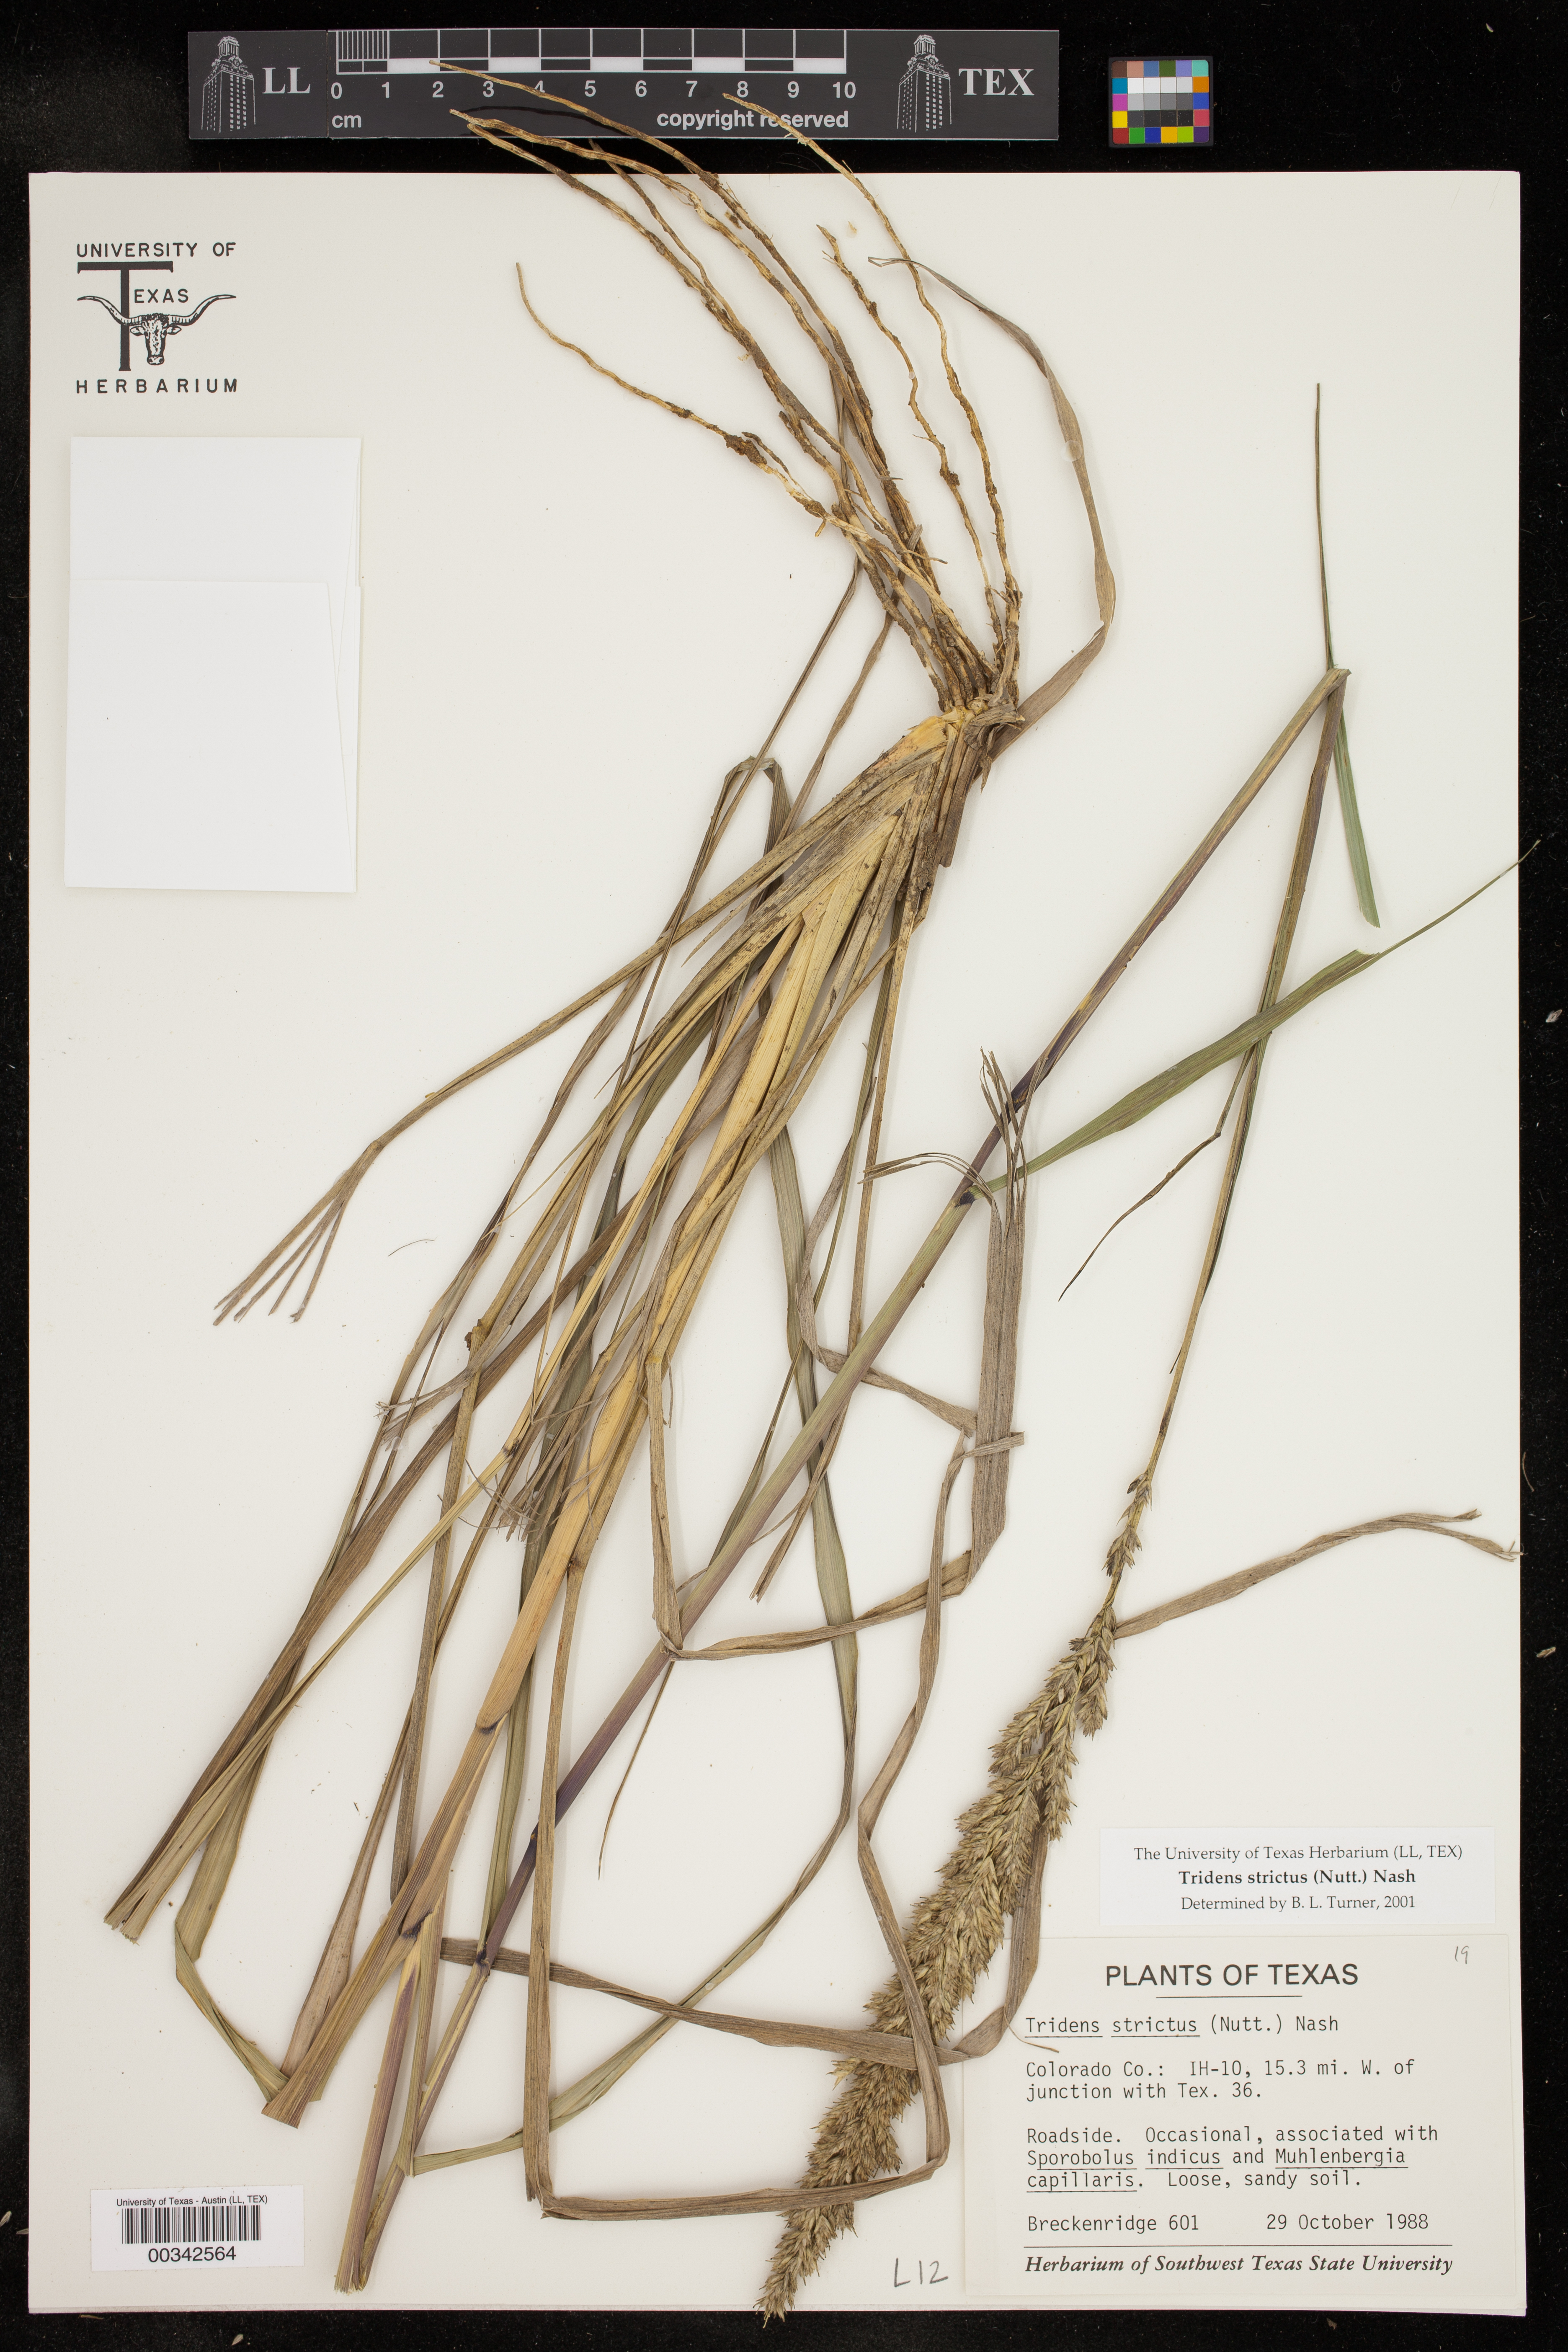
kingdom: Plantae
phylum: Tracheophyta
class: Liliopsida
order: Poales
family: Poaceae
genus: Tridens
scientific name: Tridens strictus
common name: Long-spike tridens
